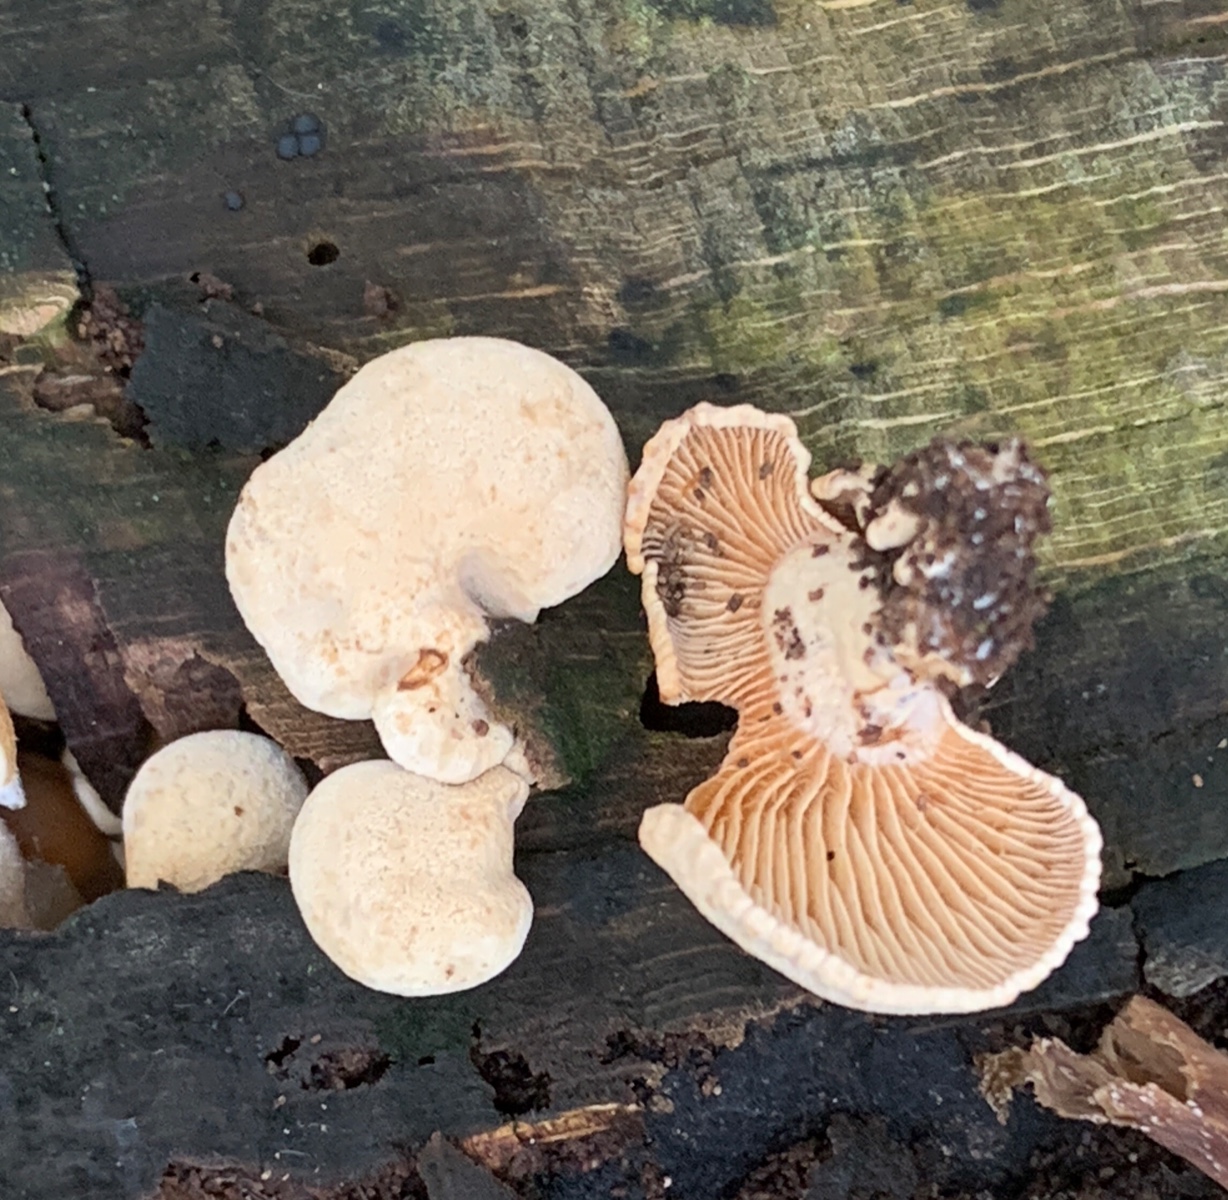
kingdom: Fungi
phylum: Basidiomycota
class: Agaricomycetes
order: Agaricales
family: Mycenaceae
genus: Panellus
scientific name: Panellus stipticus
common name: kliddet epaulethat
